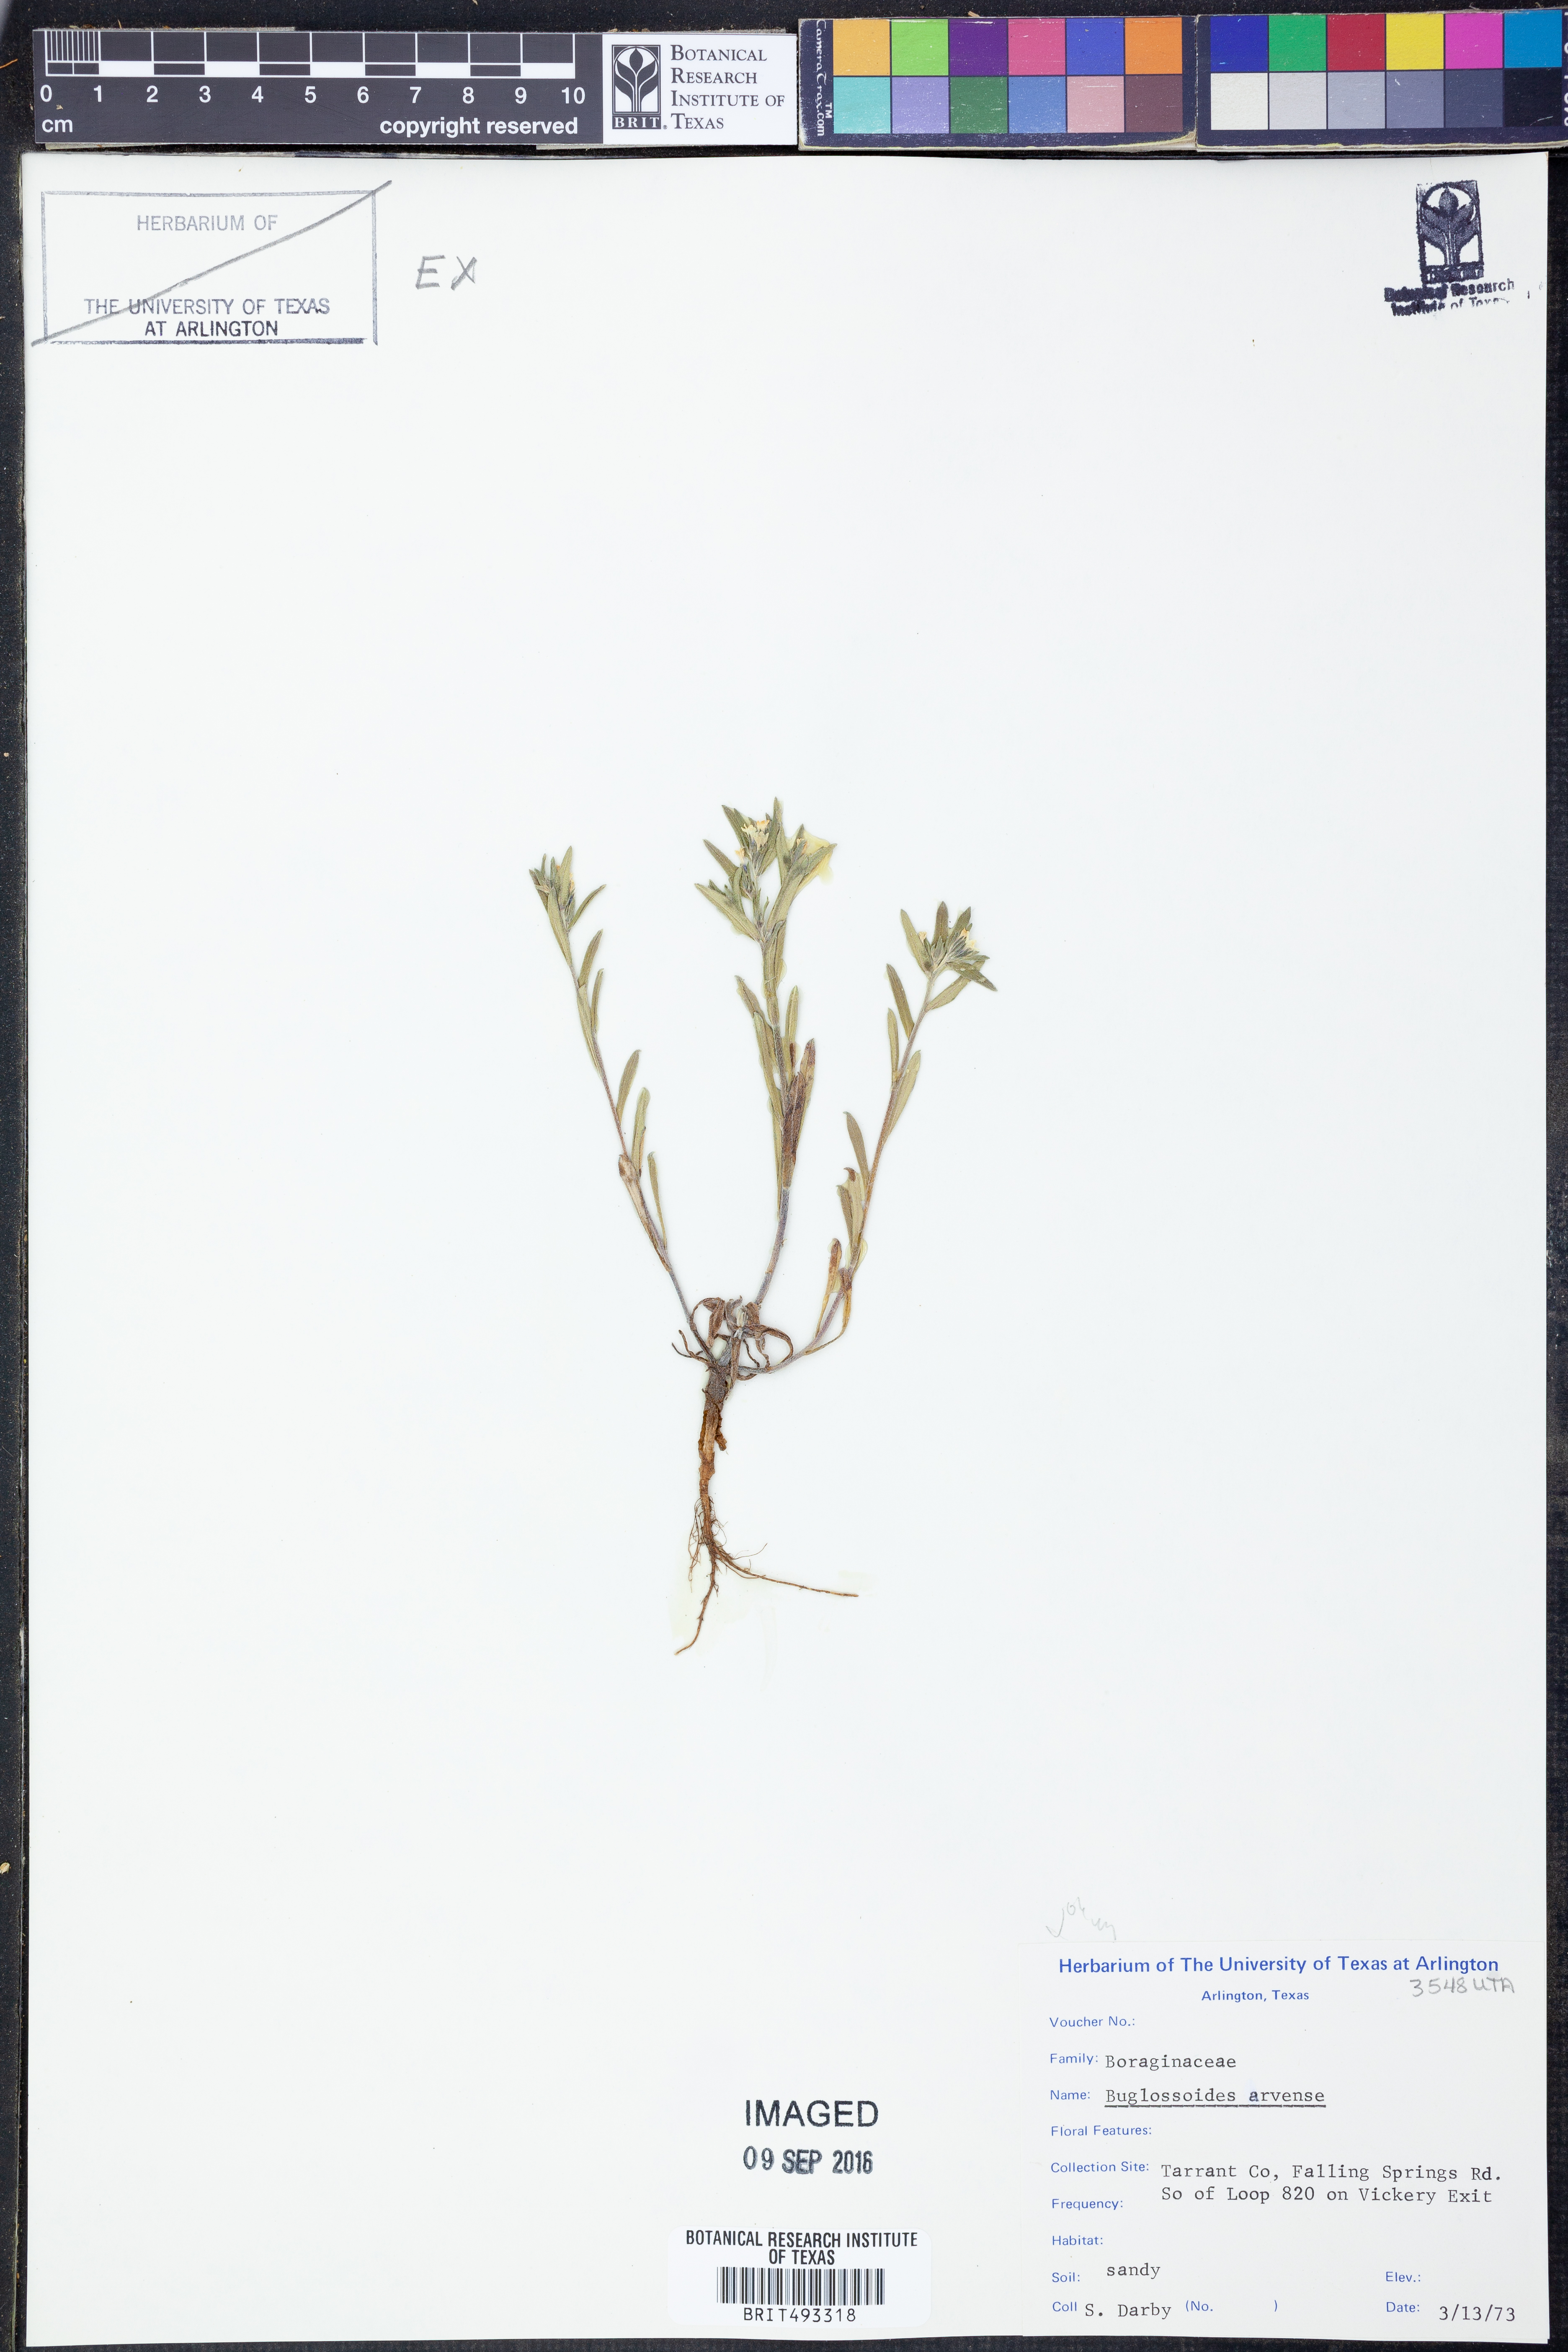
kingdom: Plantae
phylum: Tracheophyta
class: Magnoliopsida
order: Boraginales
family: Boraginaceae
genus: Buglossoides
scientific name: Buglossoides arvensis
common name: Corn gromwell
